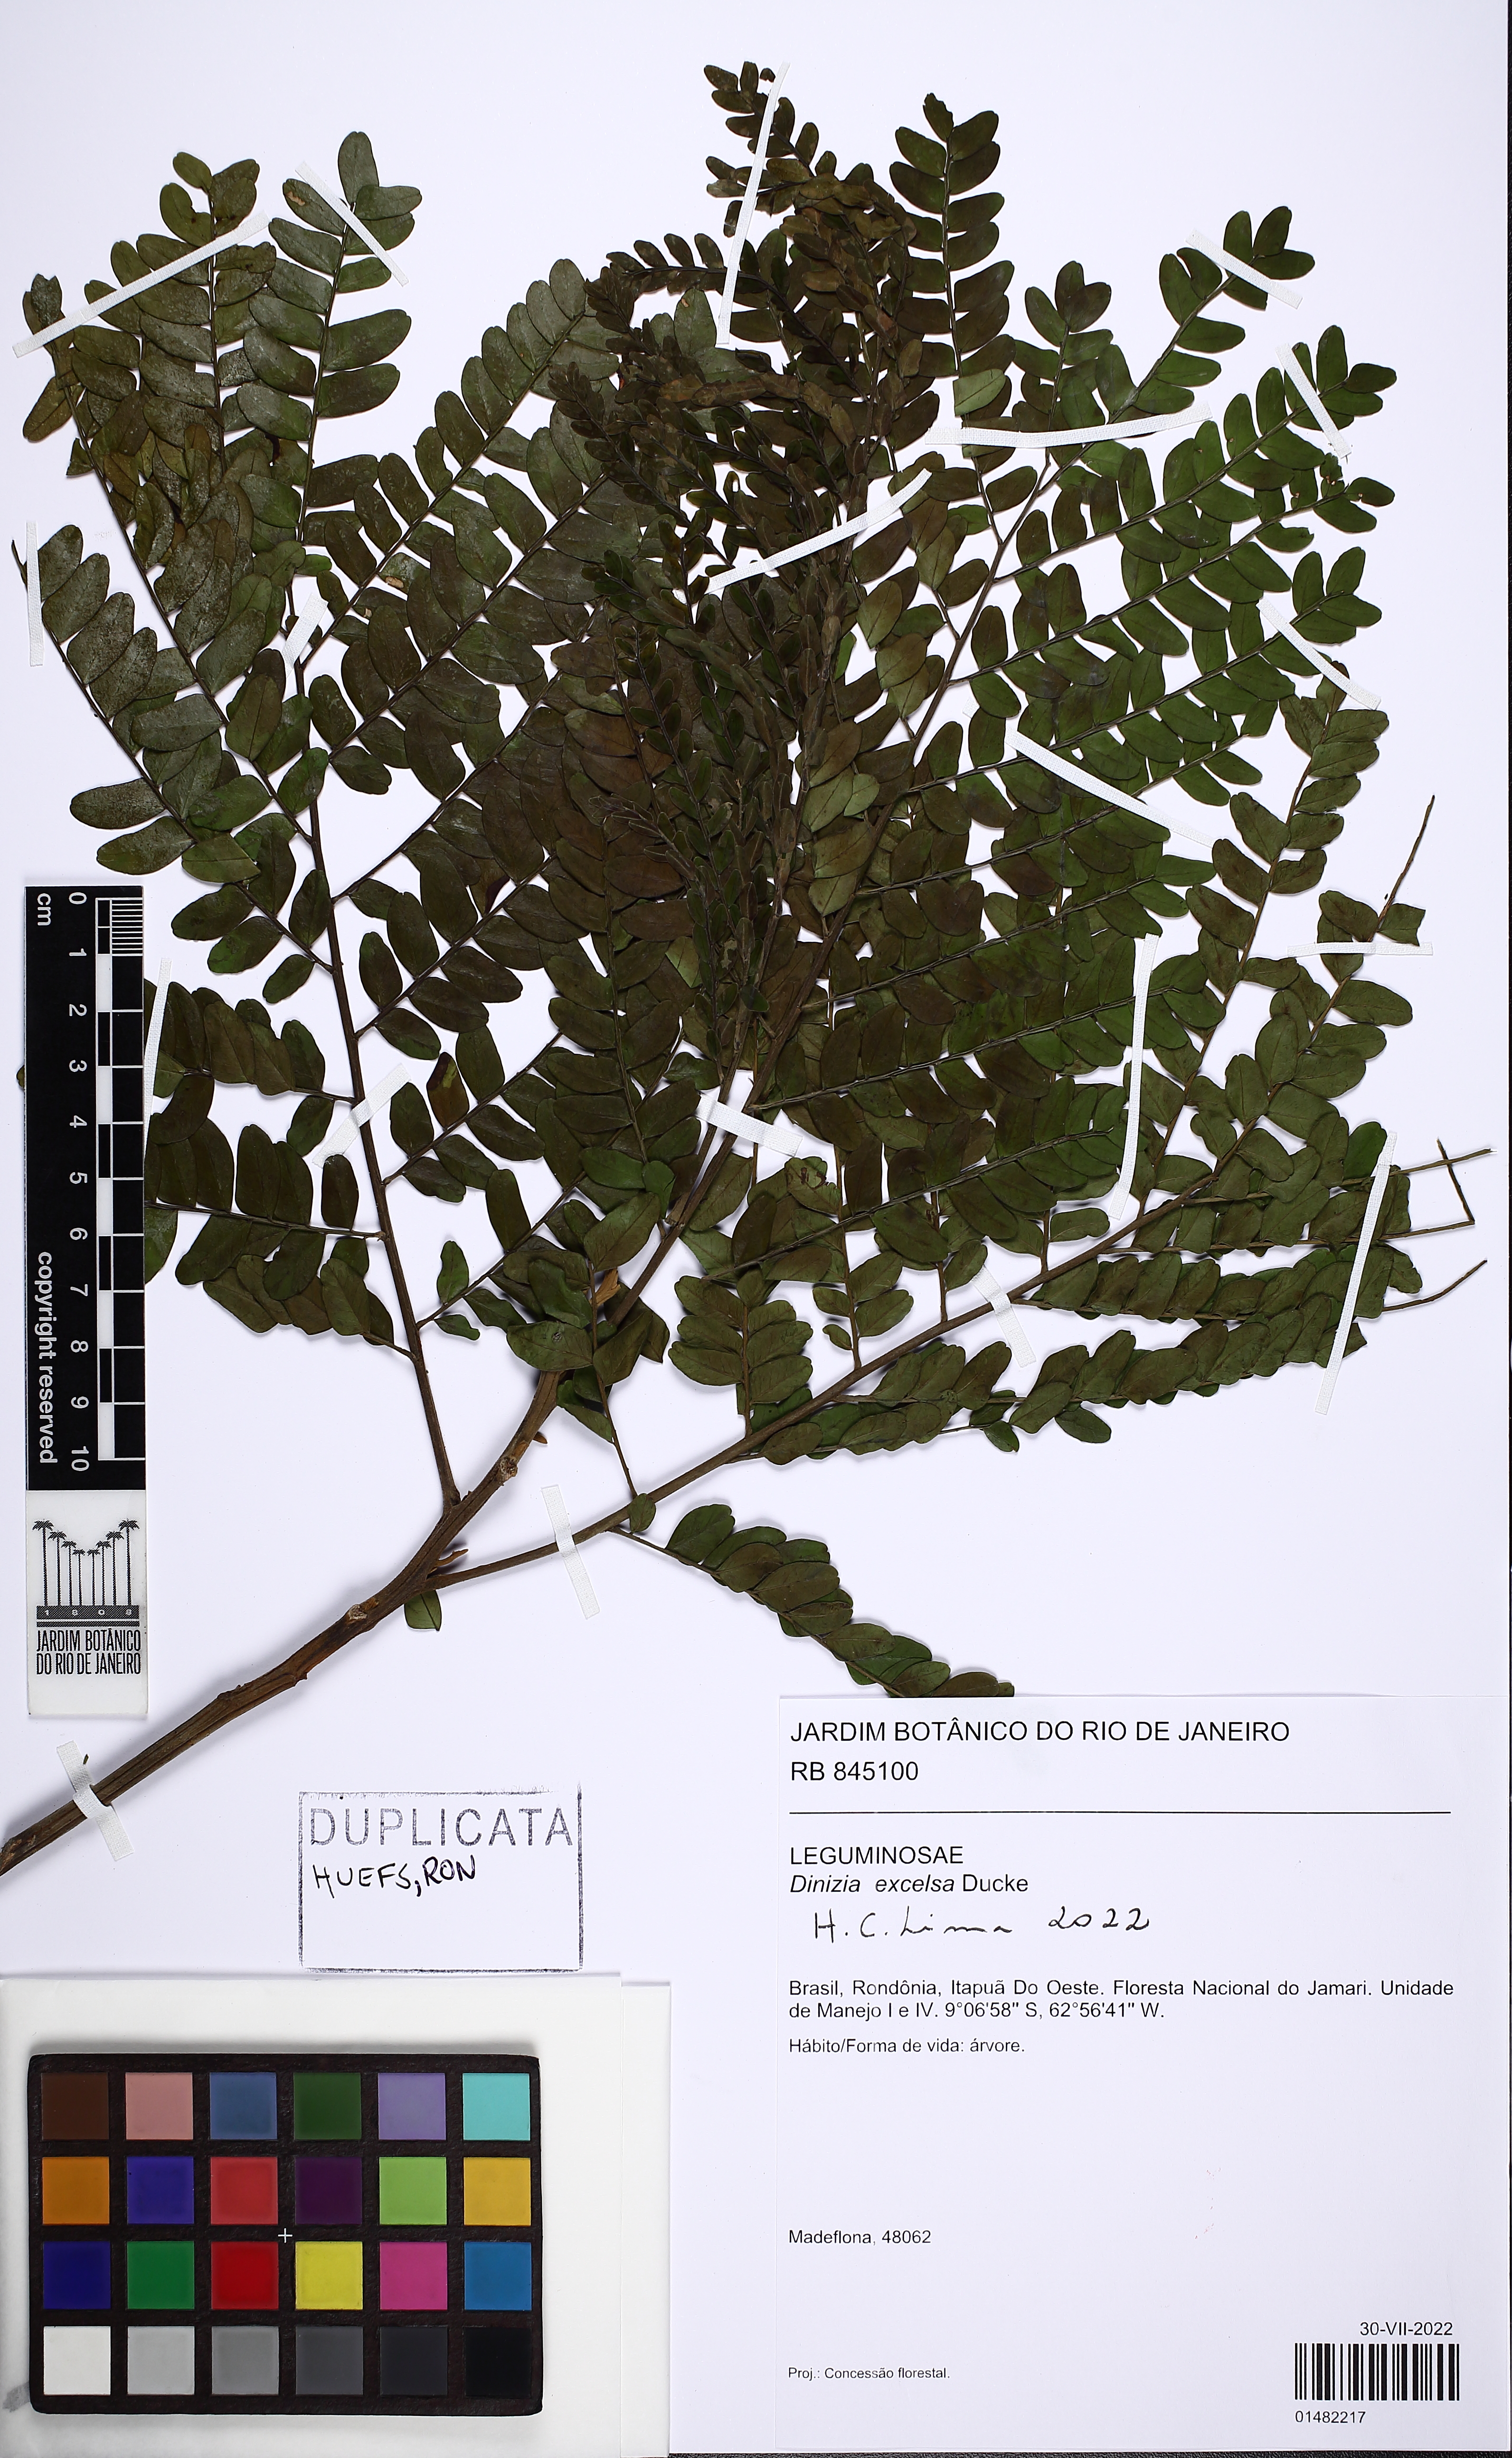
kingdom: Plantae
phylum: Tracheophyta
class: Magnoliopsida
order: Fabales
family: Fabaceae
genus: Dinizia
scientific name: Dinizia excelsa
